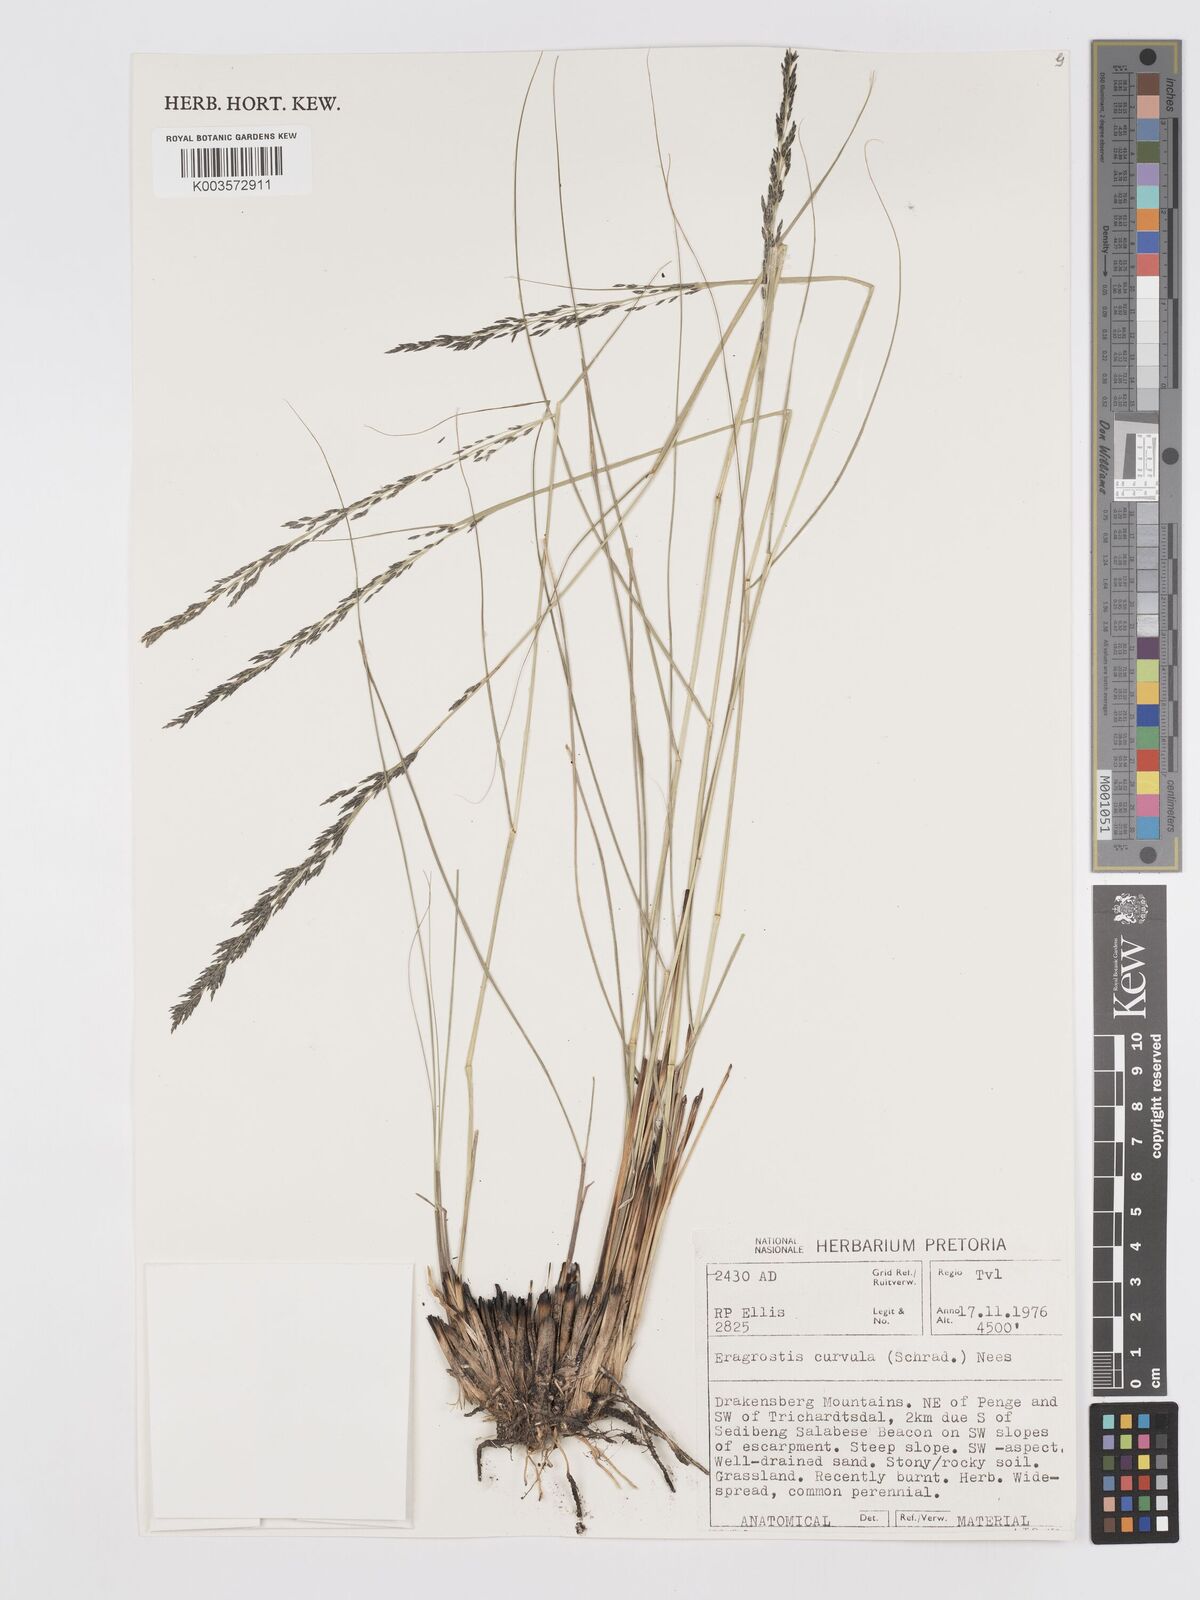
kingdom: Plantae
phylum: Tracheophyta
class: Liliopsida
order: Poales
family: Poaceae
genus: Eragrostis
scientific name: Eragrostis curvula
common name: African love-grass
